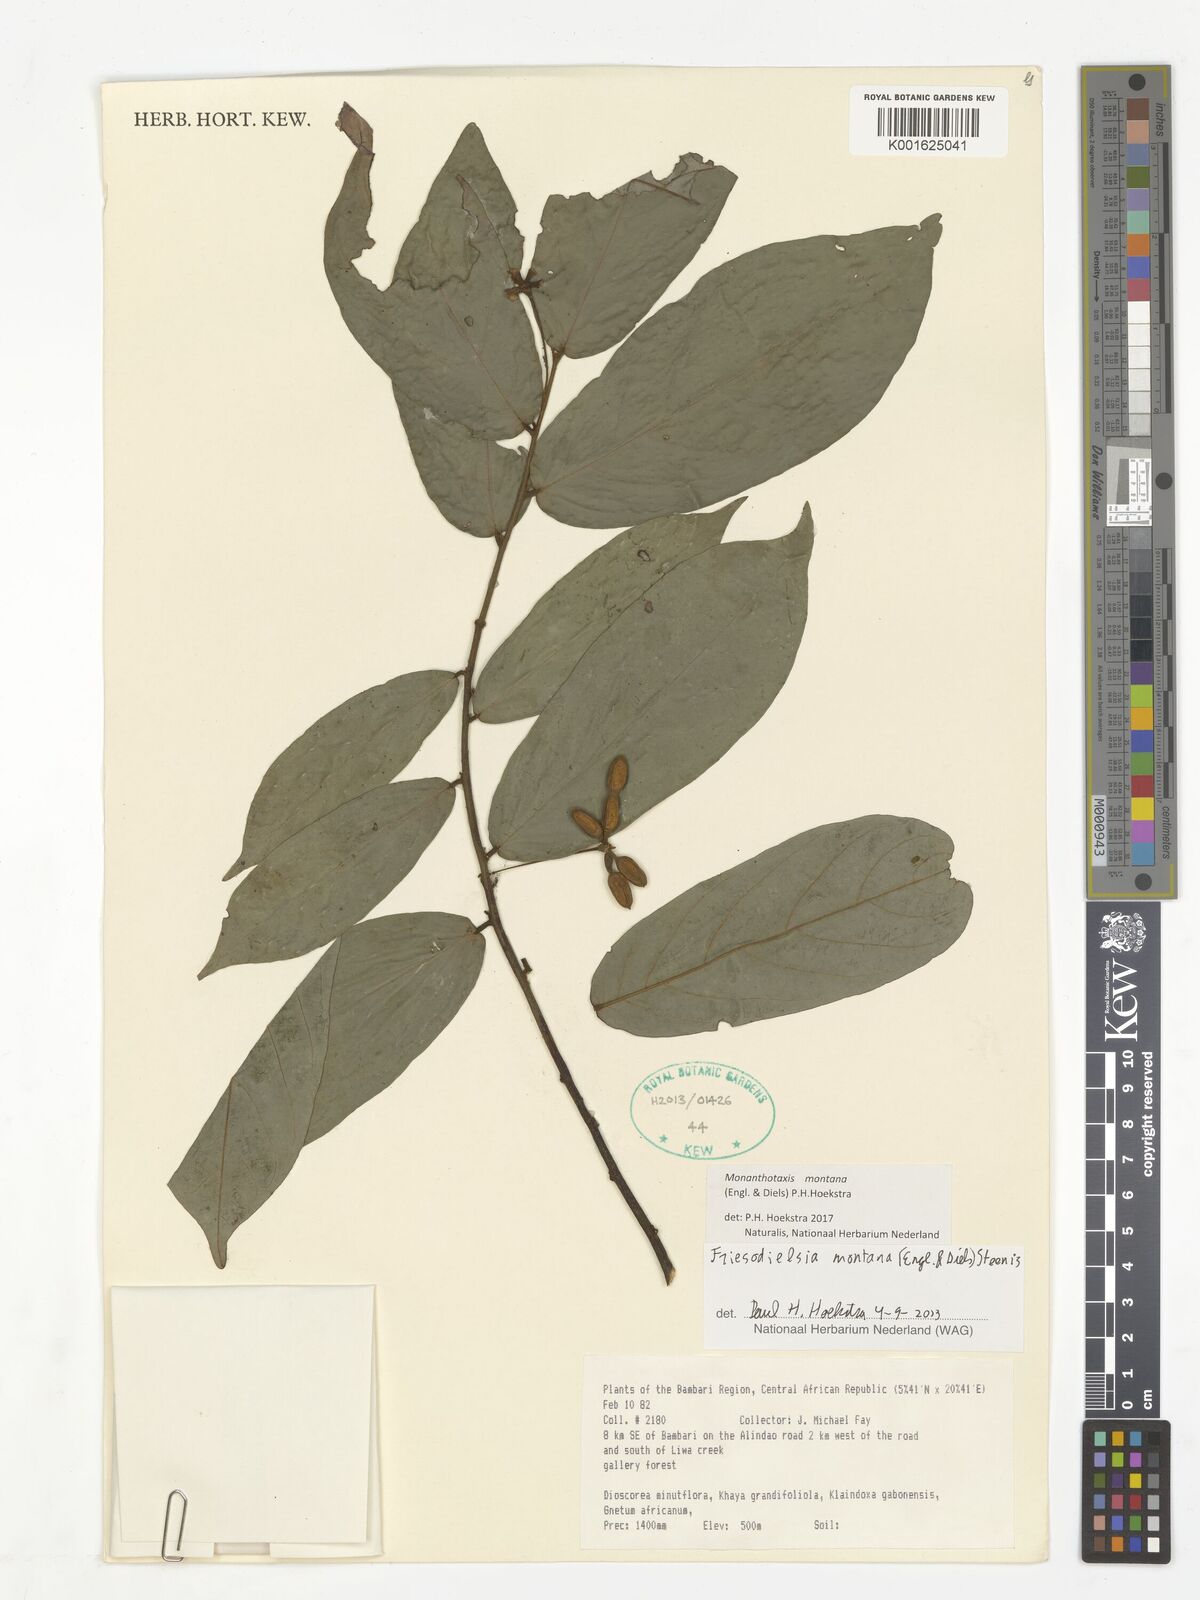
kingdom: Plantae
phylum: Tracheophyta
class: Magnoliopsida
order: Magnoliales
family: Annonaceae
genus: Friesodielsia
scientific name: Friesodielsia montana
